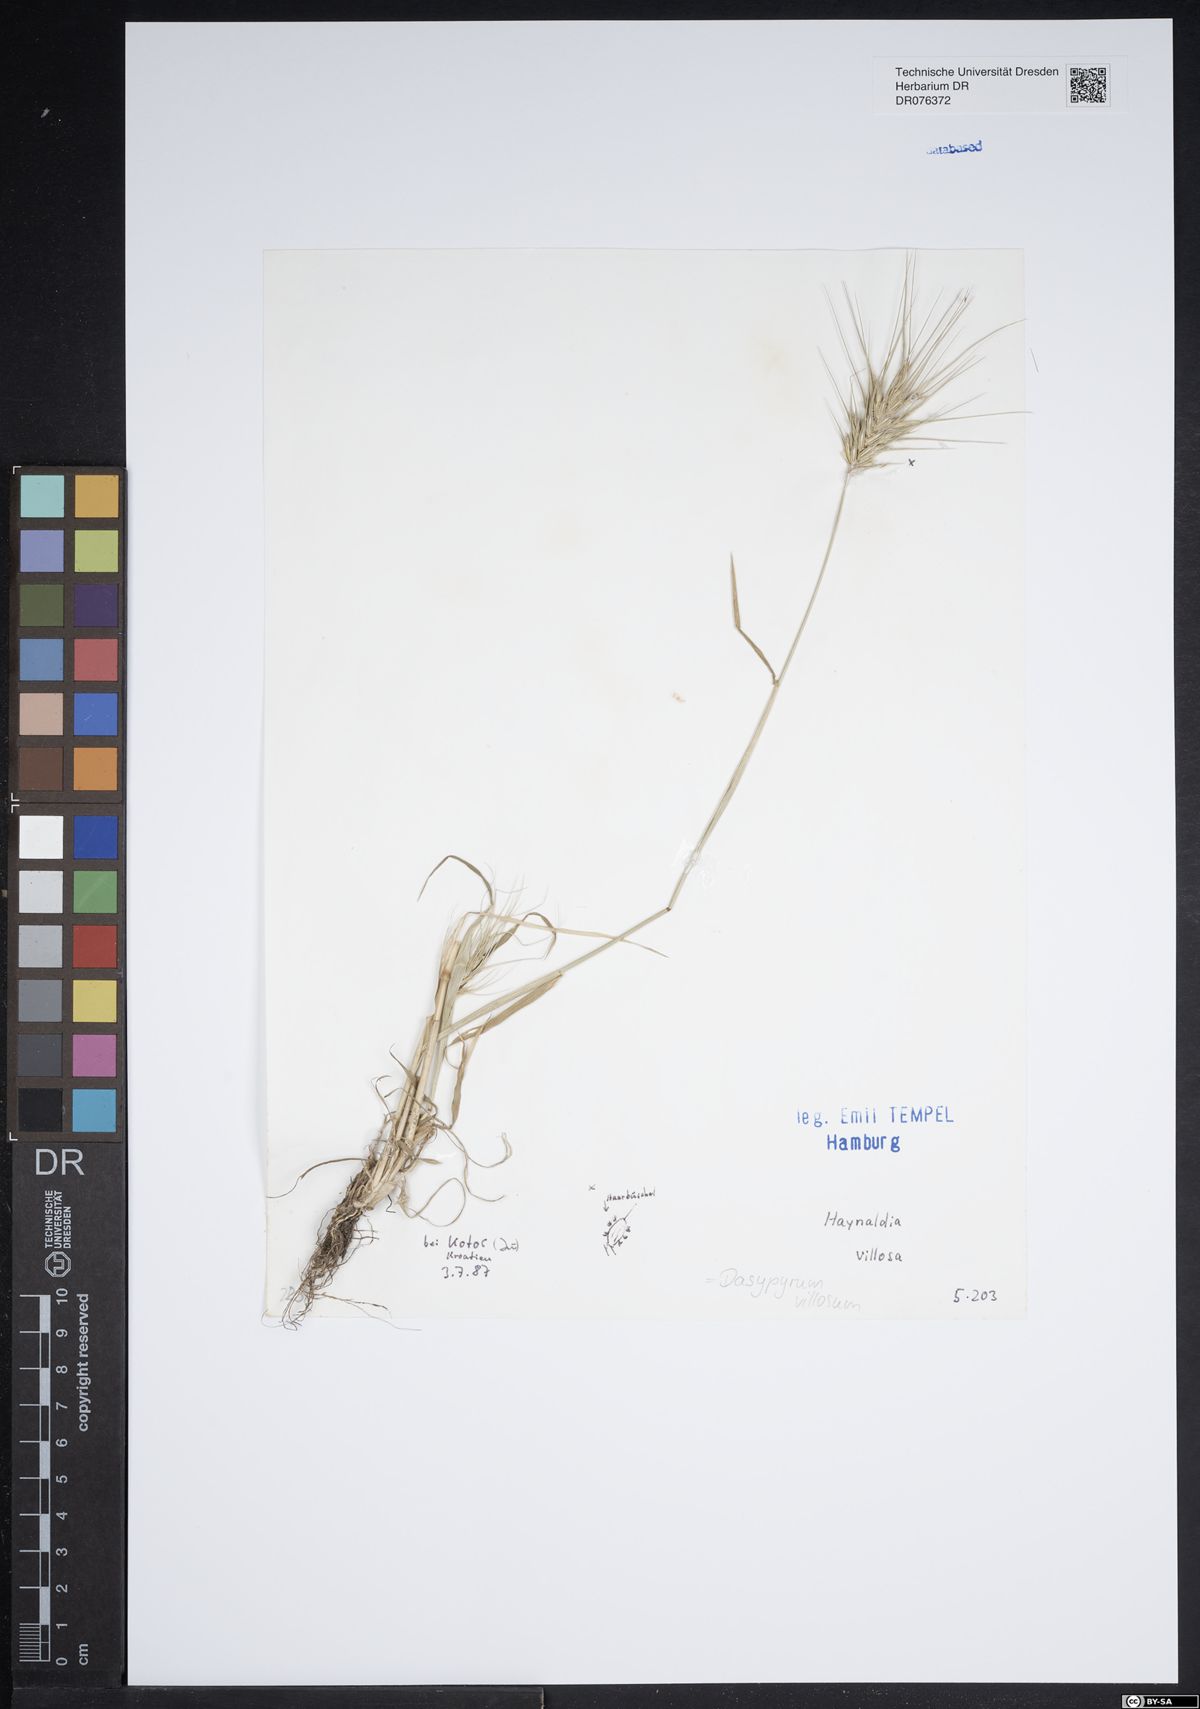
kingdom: Plantae
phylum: Tracheophyta
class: Liliopsida
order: Poales
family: Poaceae
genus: Dasypyrum
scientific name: Dasypyrum villosum
